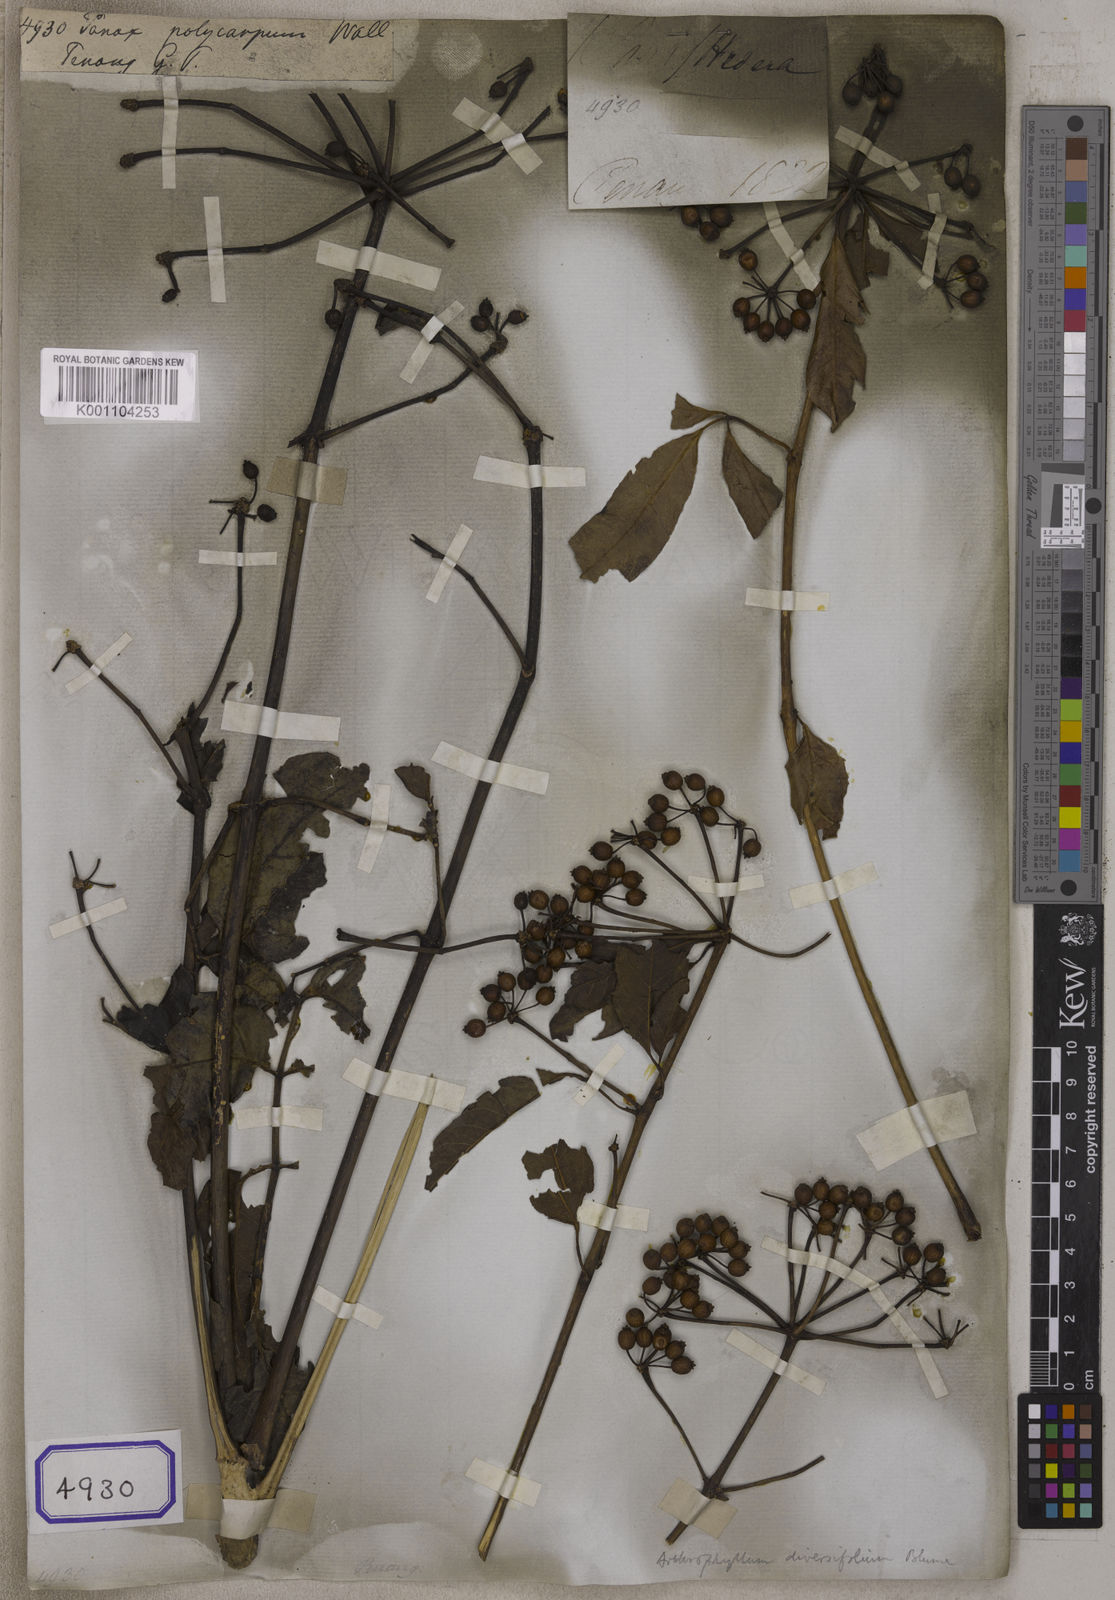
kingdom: Plantae
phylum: Tracheophyta
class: Magnoliopsida
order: Apiales
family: Araliaceae
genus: Panax
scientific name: Panax
